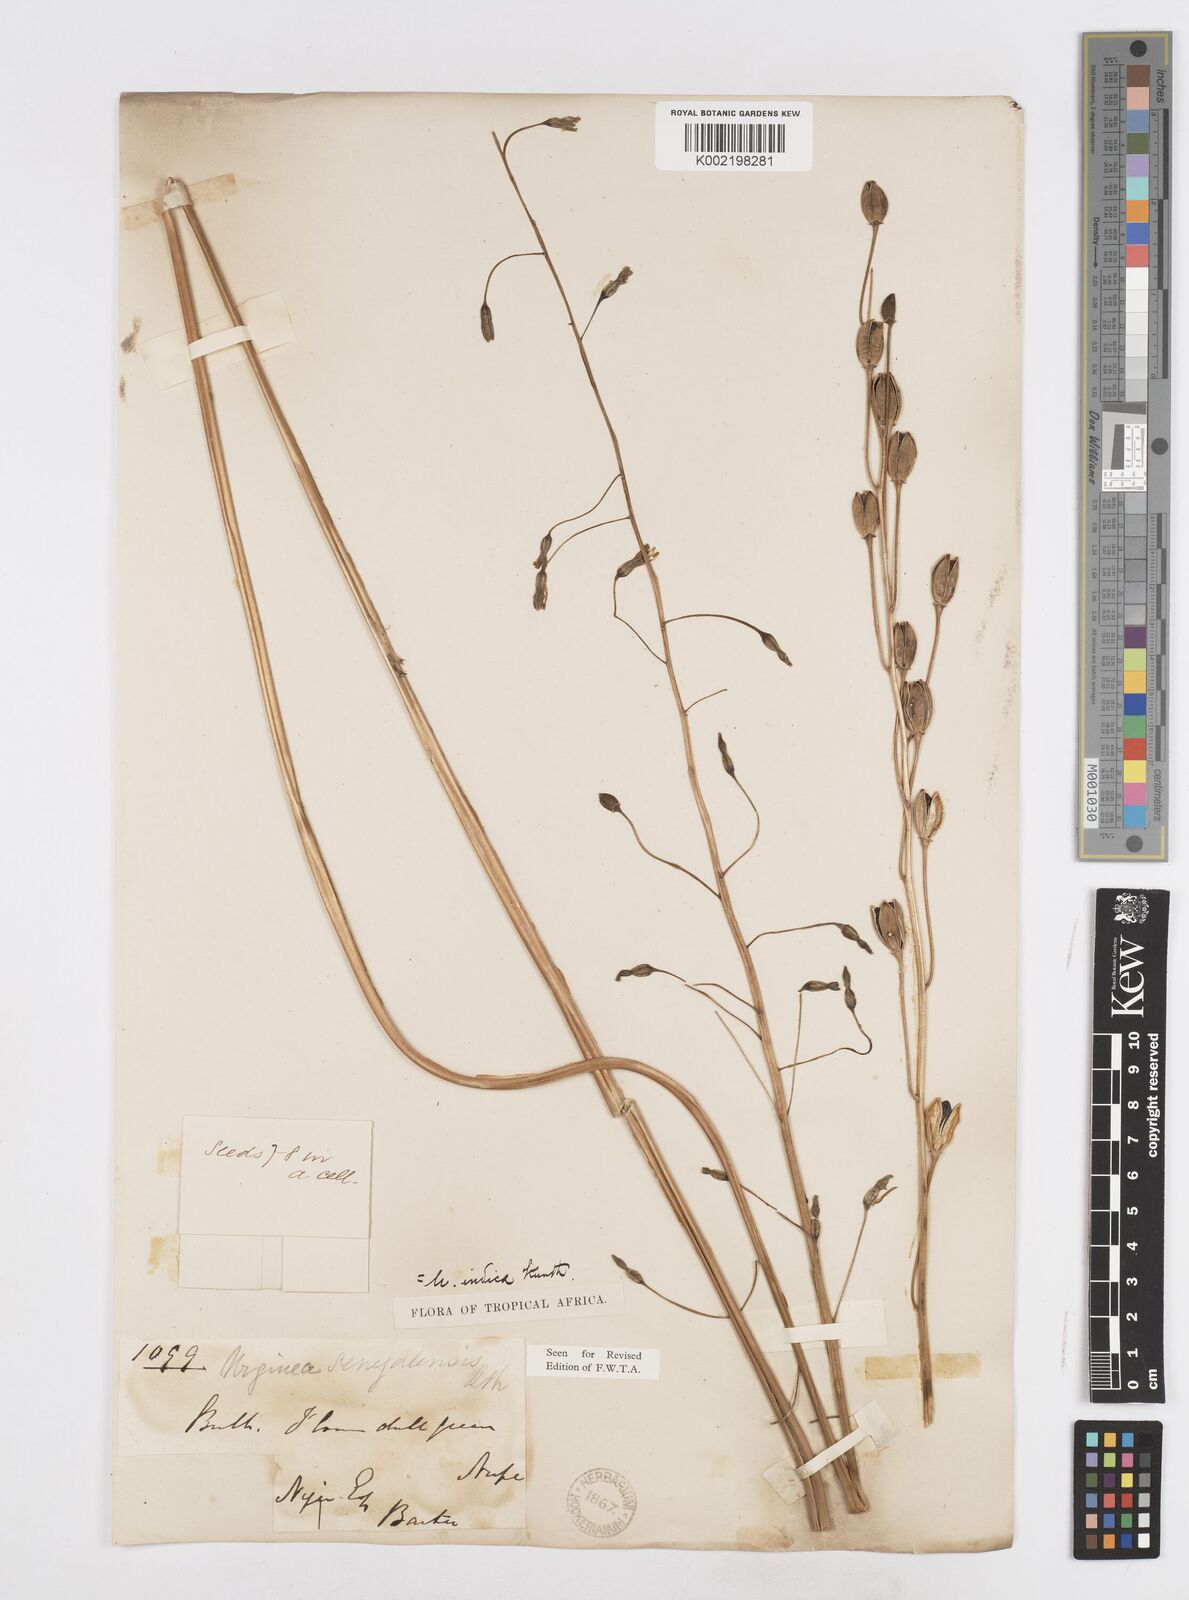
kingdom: Plantae
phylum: Tracheophyta
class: Liliopsida
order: Asparagales
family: Asparagaceae
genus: Drimia
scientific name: Drimia indica
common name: Indian-squill
